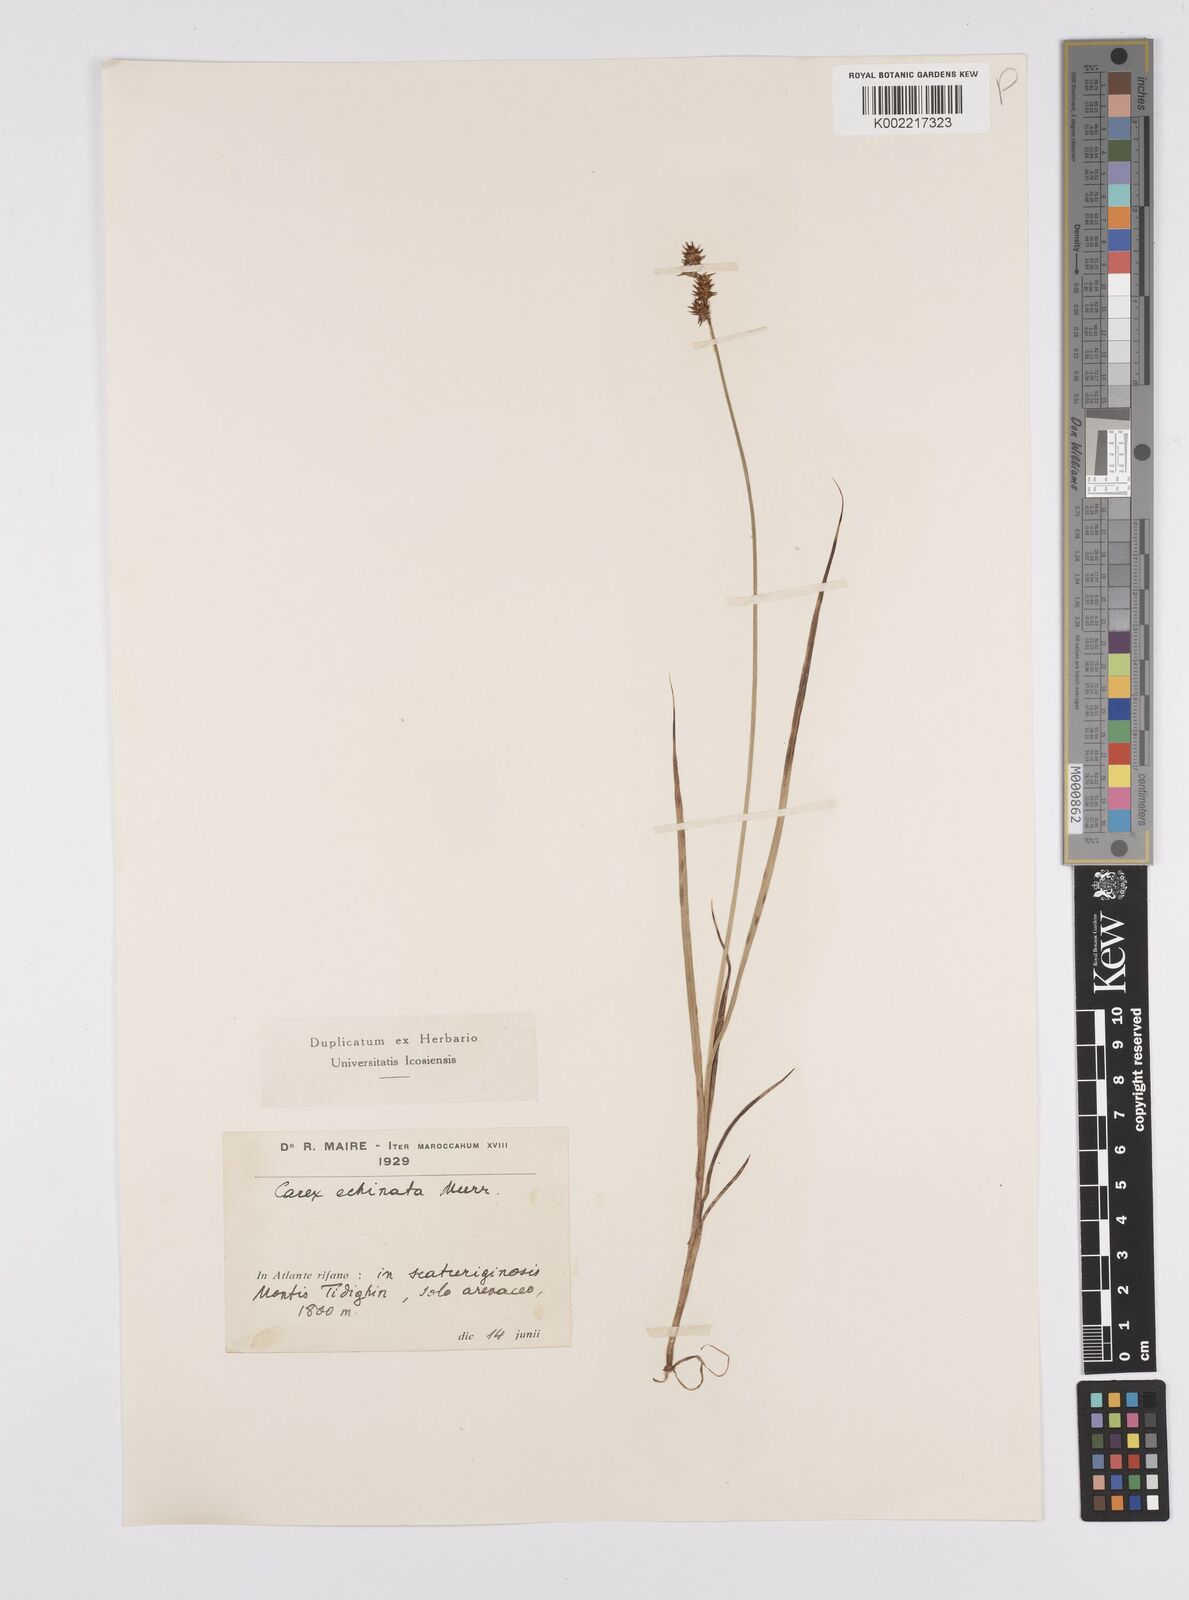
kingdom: Plantae
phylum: Tracheophyta
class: Liliopsida
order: Poales
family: Cyperaceae
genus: Carex
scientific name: Carex echinata
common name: Star sedge
